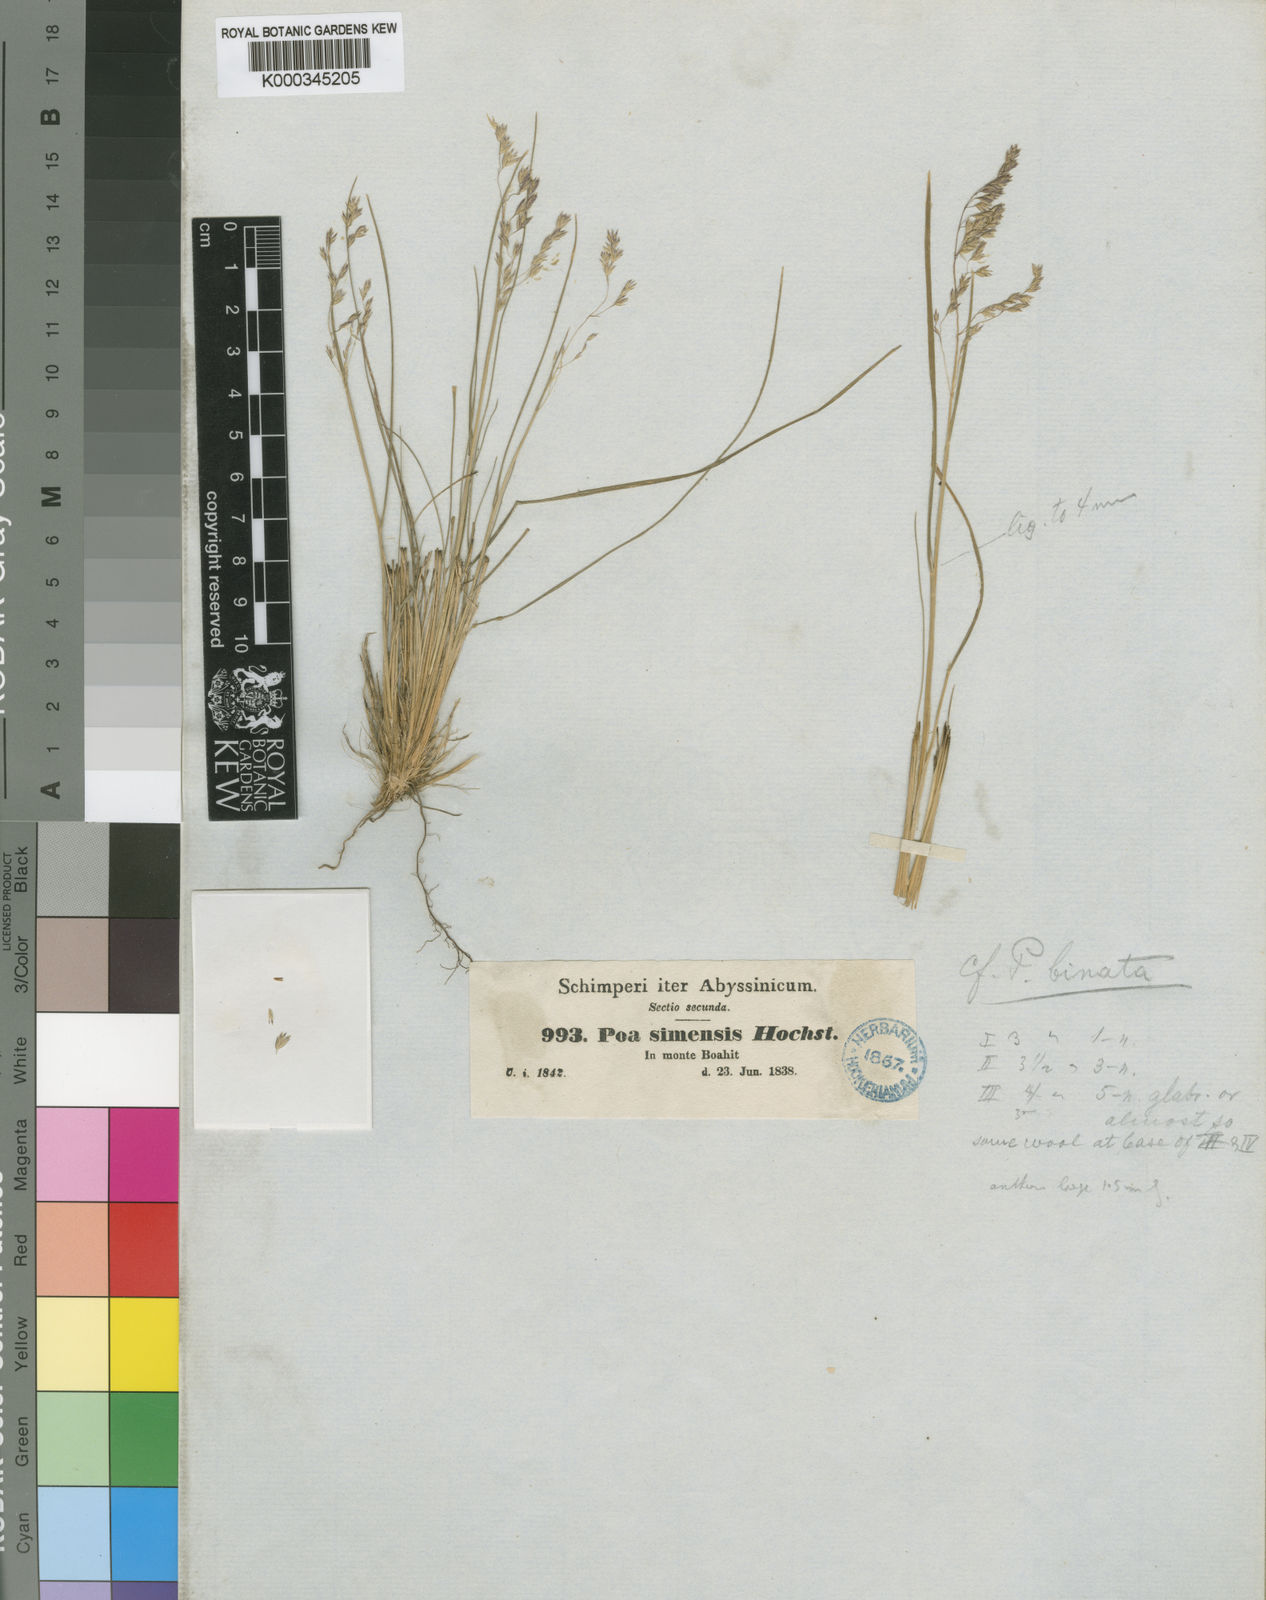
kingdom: Plantae
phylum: Tracheophyta
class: Liliopsida
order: Poales
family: Poaceae
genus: Poa
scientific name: Poa simensis
